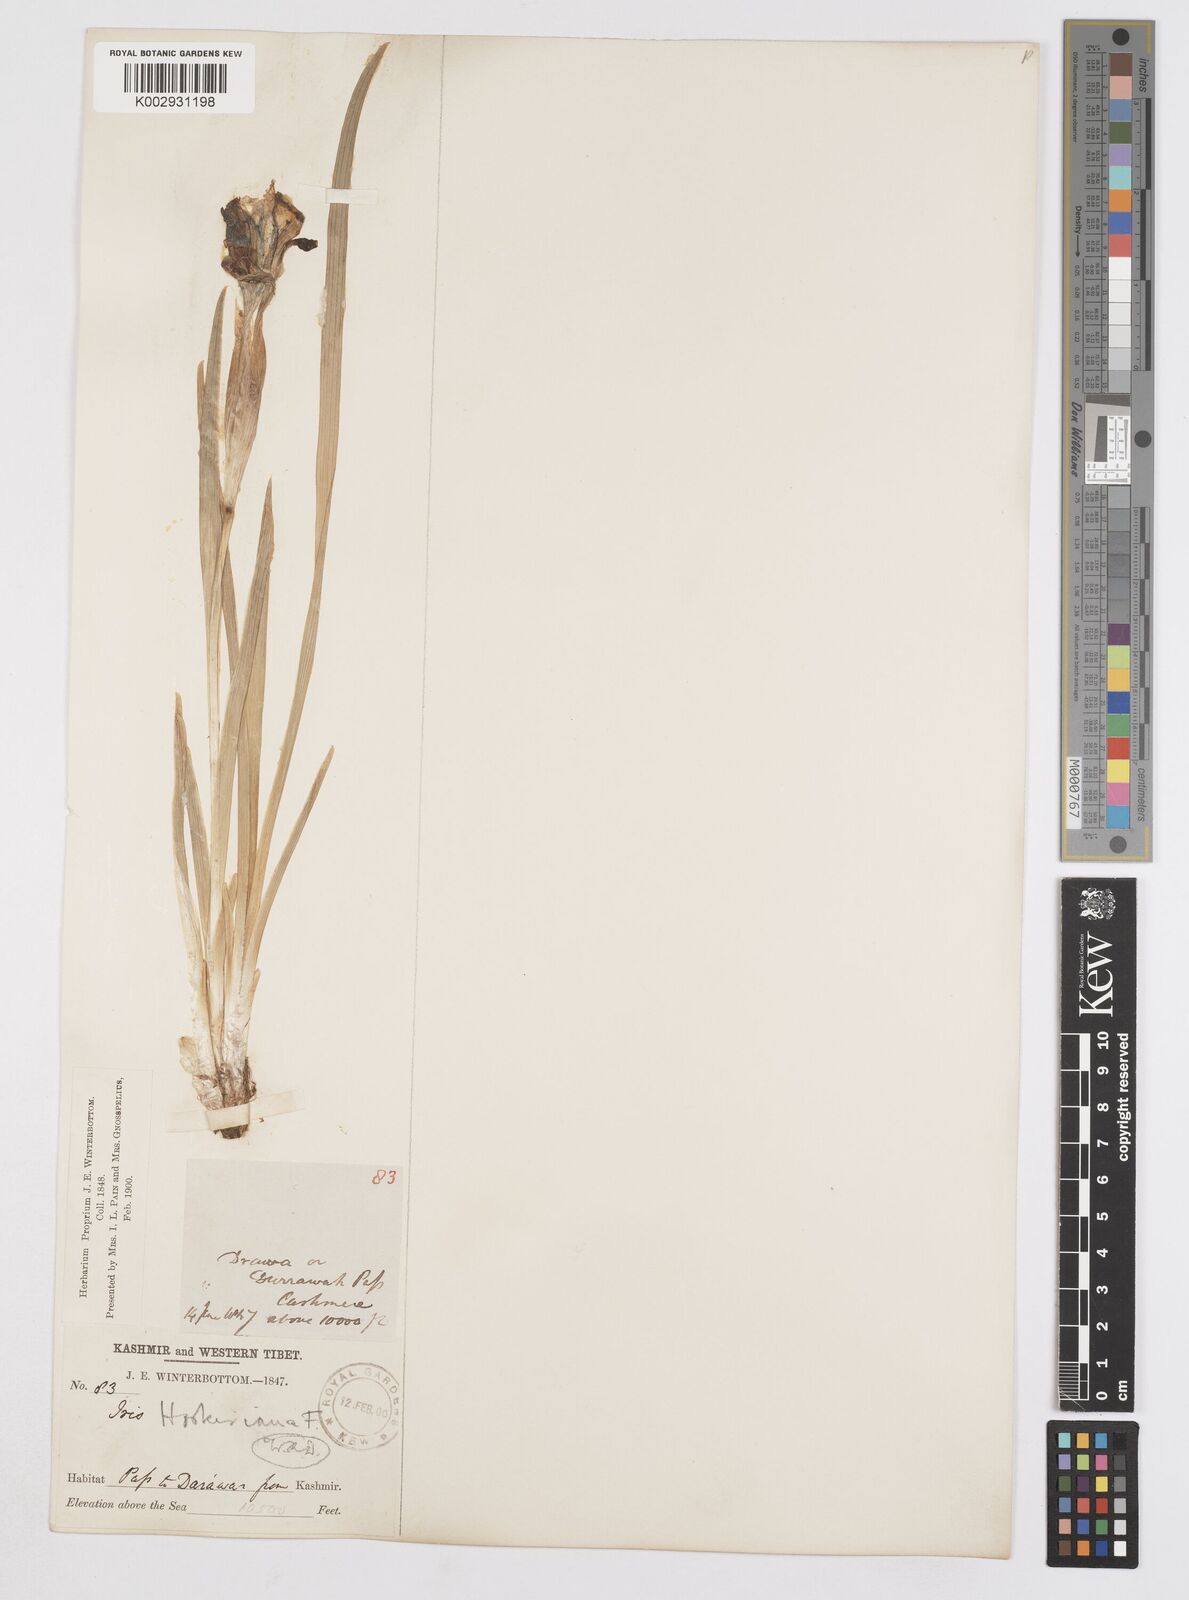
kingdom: Plantae
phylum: Tracheophyta
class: Liliopsida
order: Asparagales
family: Iridaceae
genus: Iris
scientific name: Iris hookeriana
